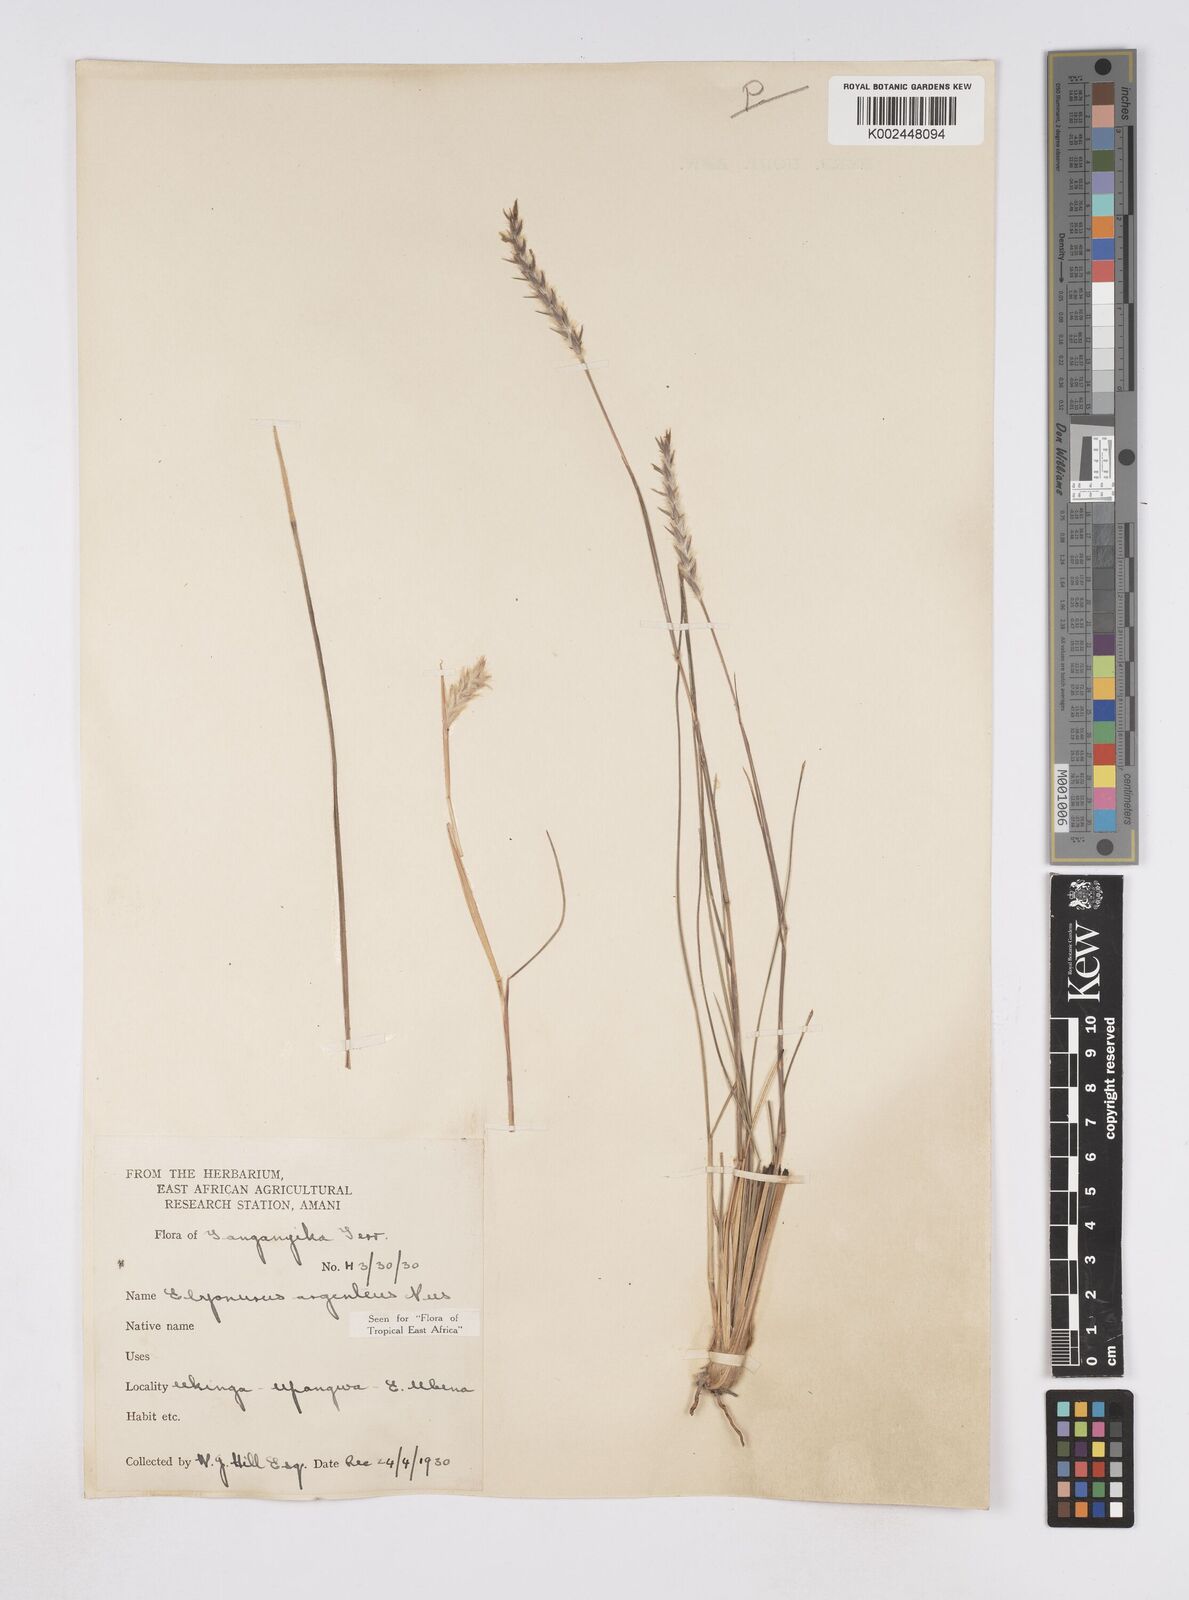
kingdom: Plantae
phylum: Tracheophyta
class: Liliopsida
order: Poales
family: Poaceae
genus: Elionurus
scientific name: Elionurus
